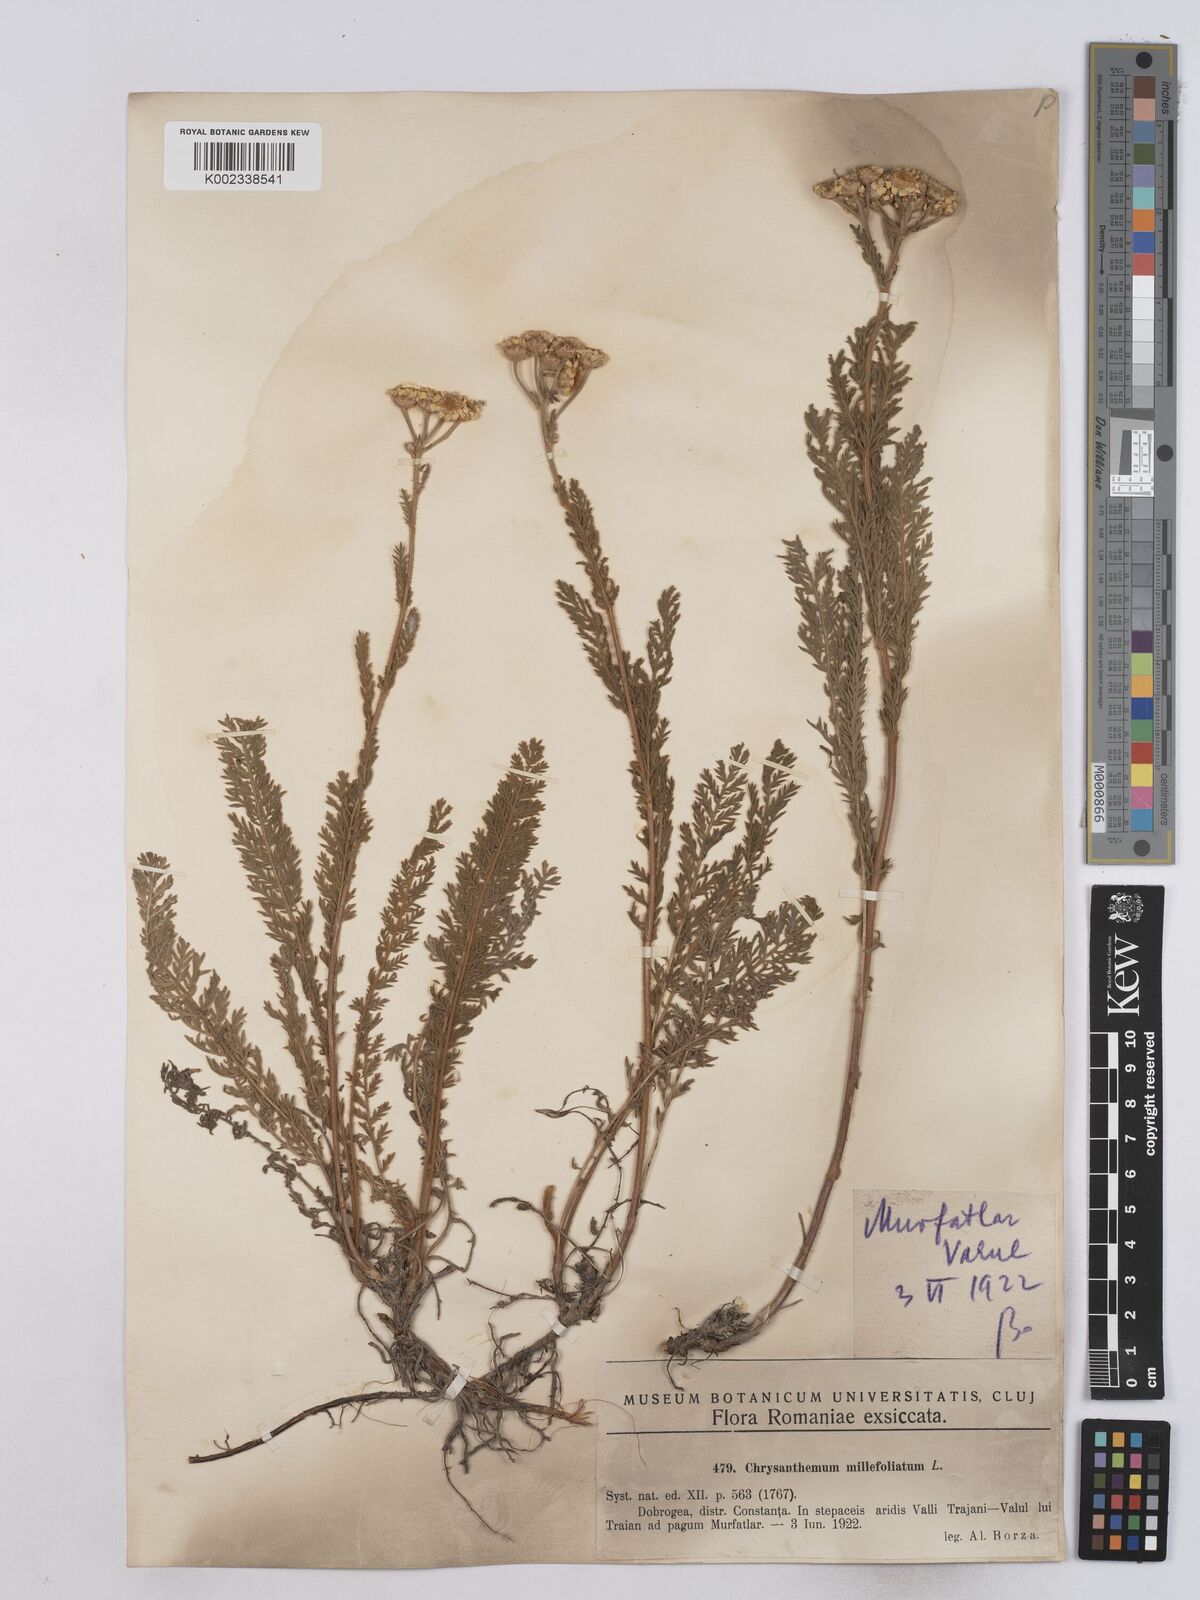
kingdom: Plantae
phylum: Tracheophyta
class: Magnoliopsida
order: Asterales
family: Asteraceae
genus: Tanacetum
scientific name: Tanacetum millefolium
